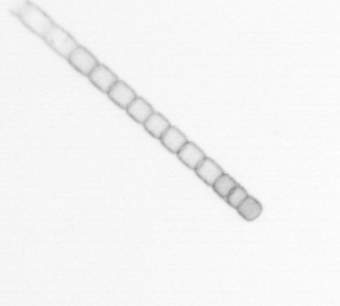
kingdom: Chromista
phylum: Ochrophyta
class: Bacillariophyceae
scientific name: Bacillariophyceae
